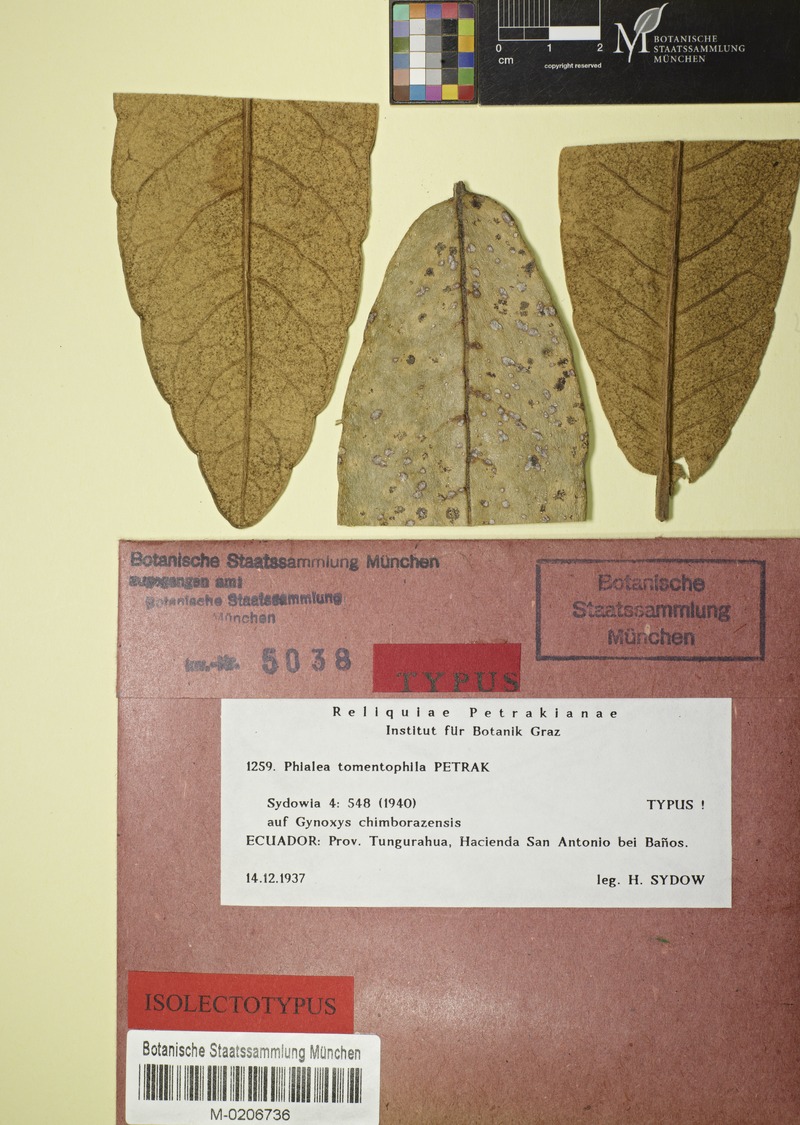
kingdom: Fungi
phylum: Ascomycota
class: Leotiomycetes
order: Helotiales
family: Hyaloscyphaceae
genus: Phialea
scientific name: Phialea tomentophila
